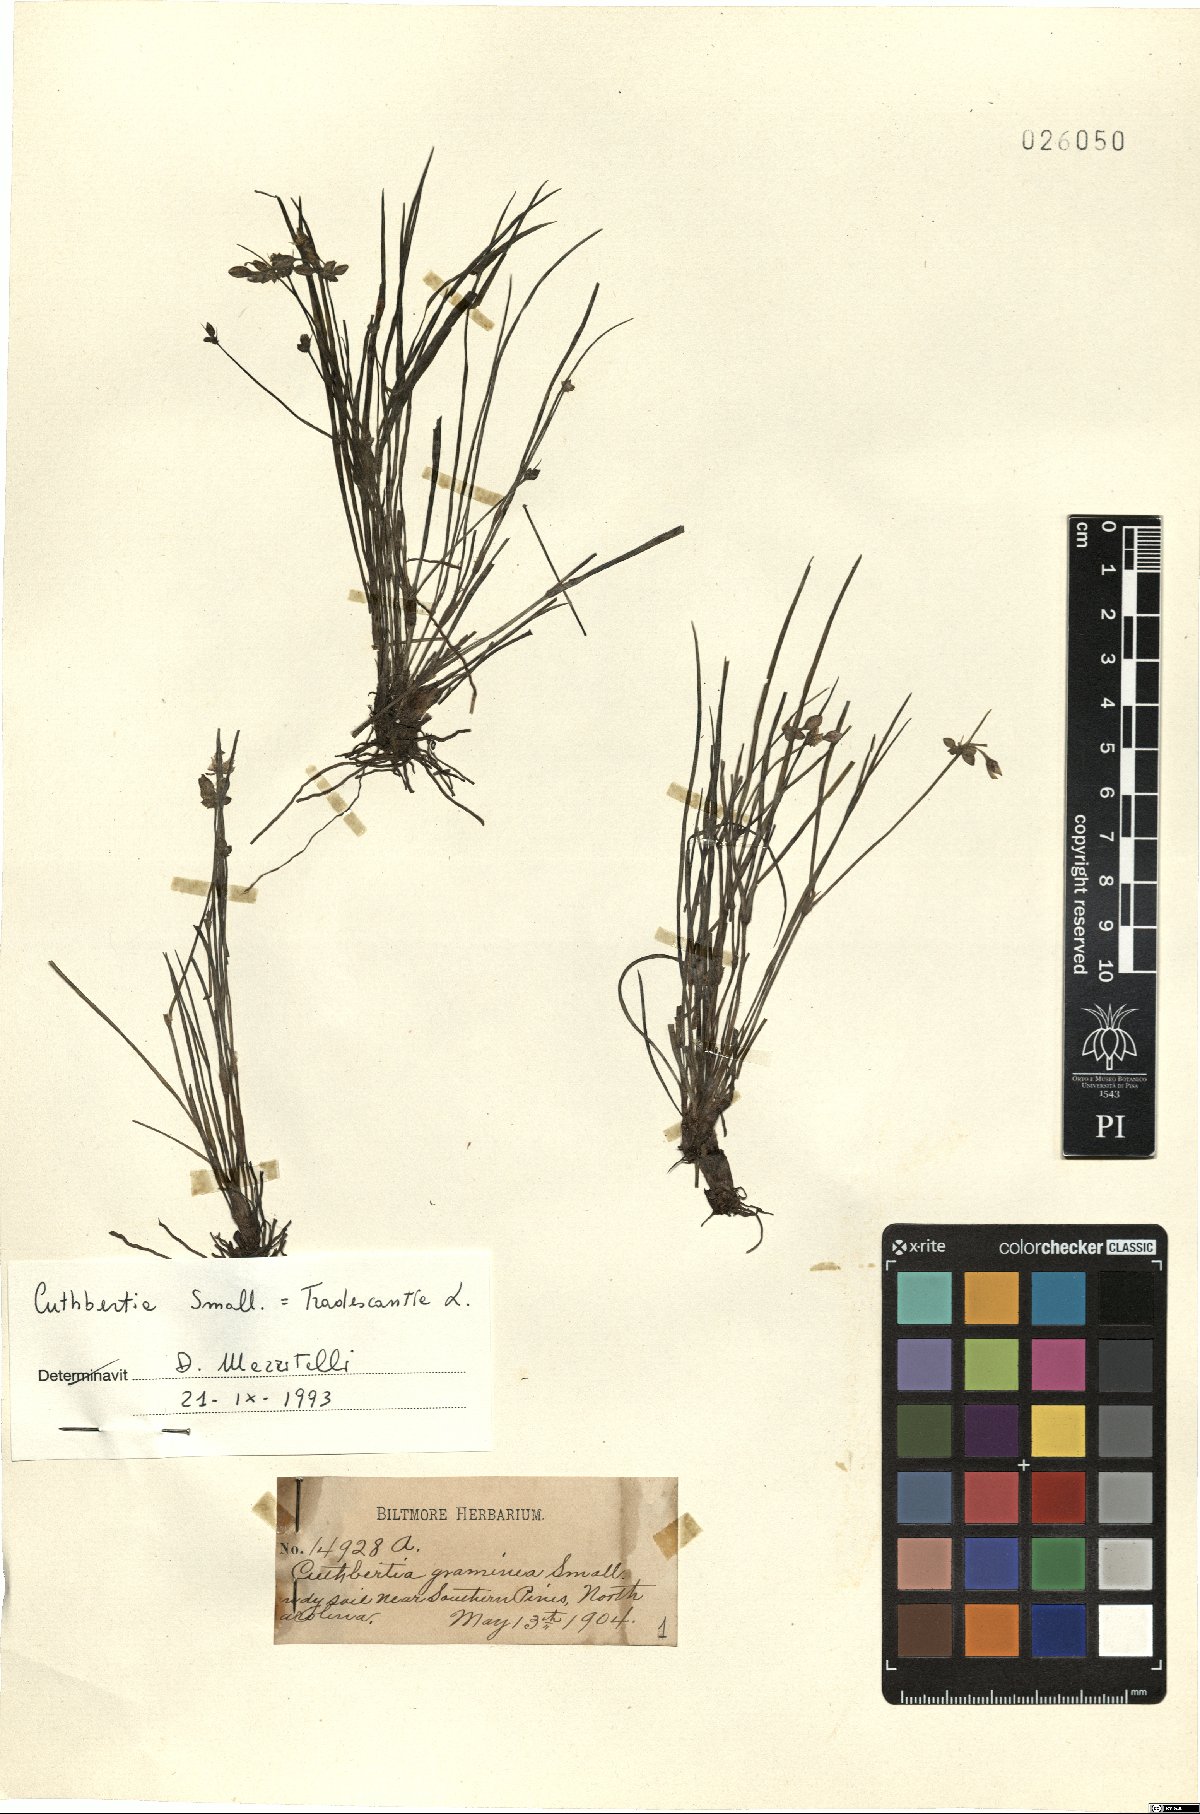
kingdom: Plantae
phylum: Tracheophyta
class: Liliopsida
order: Commelinales
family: Commelinaceae
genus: Callisia
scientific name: Callisia graminea
